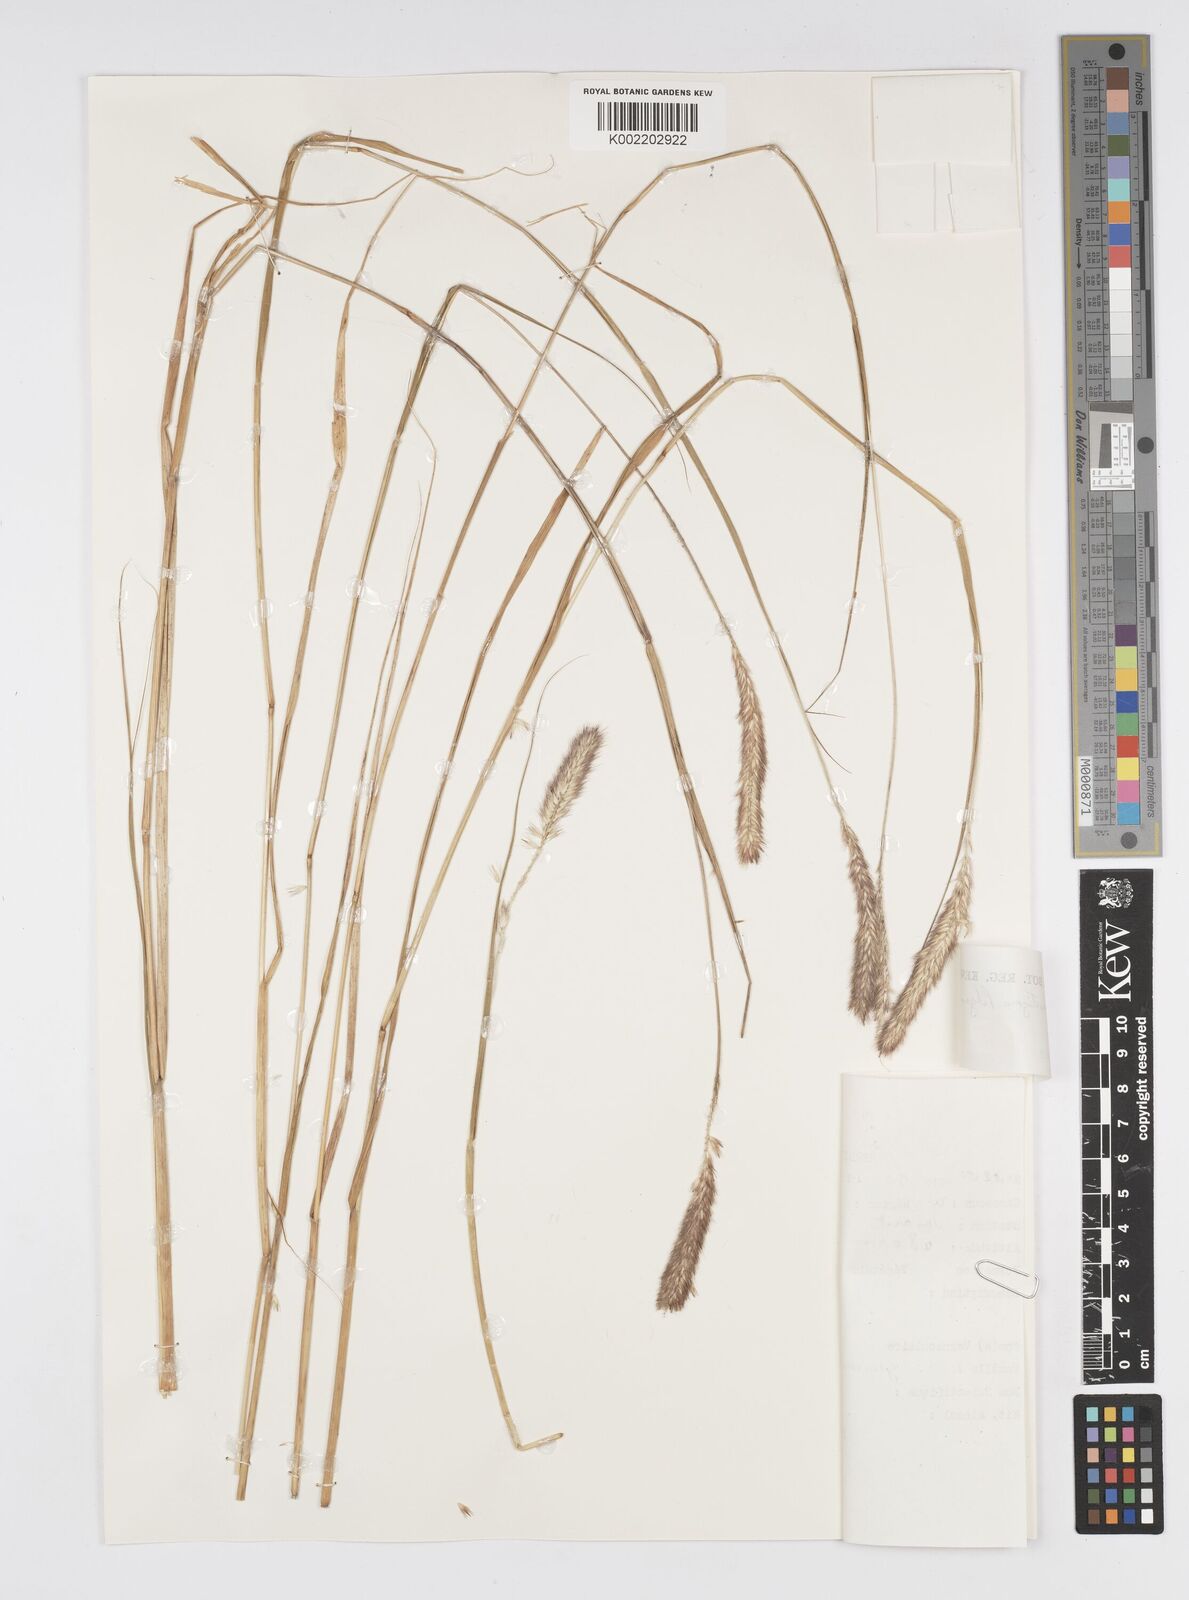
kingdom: Plantae
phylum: Tracheophyta
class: Liliopsida
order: Poales
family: Poaceae
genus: Cenchrus
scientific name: Cenchrus monostigma
